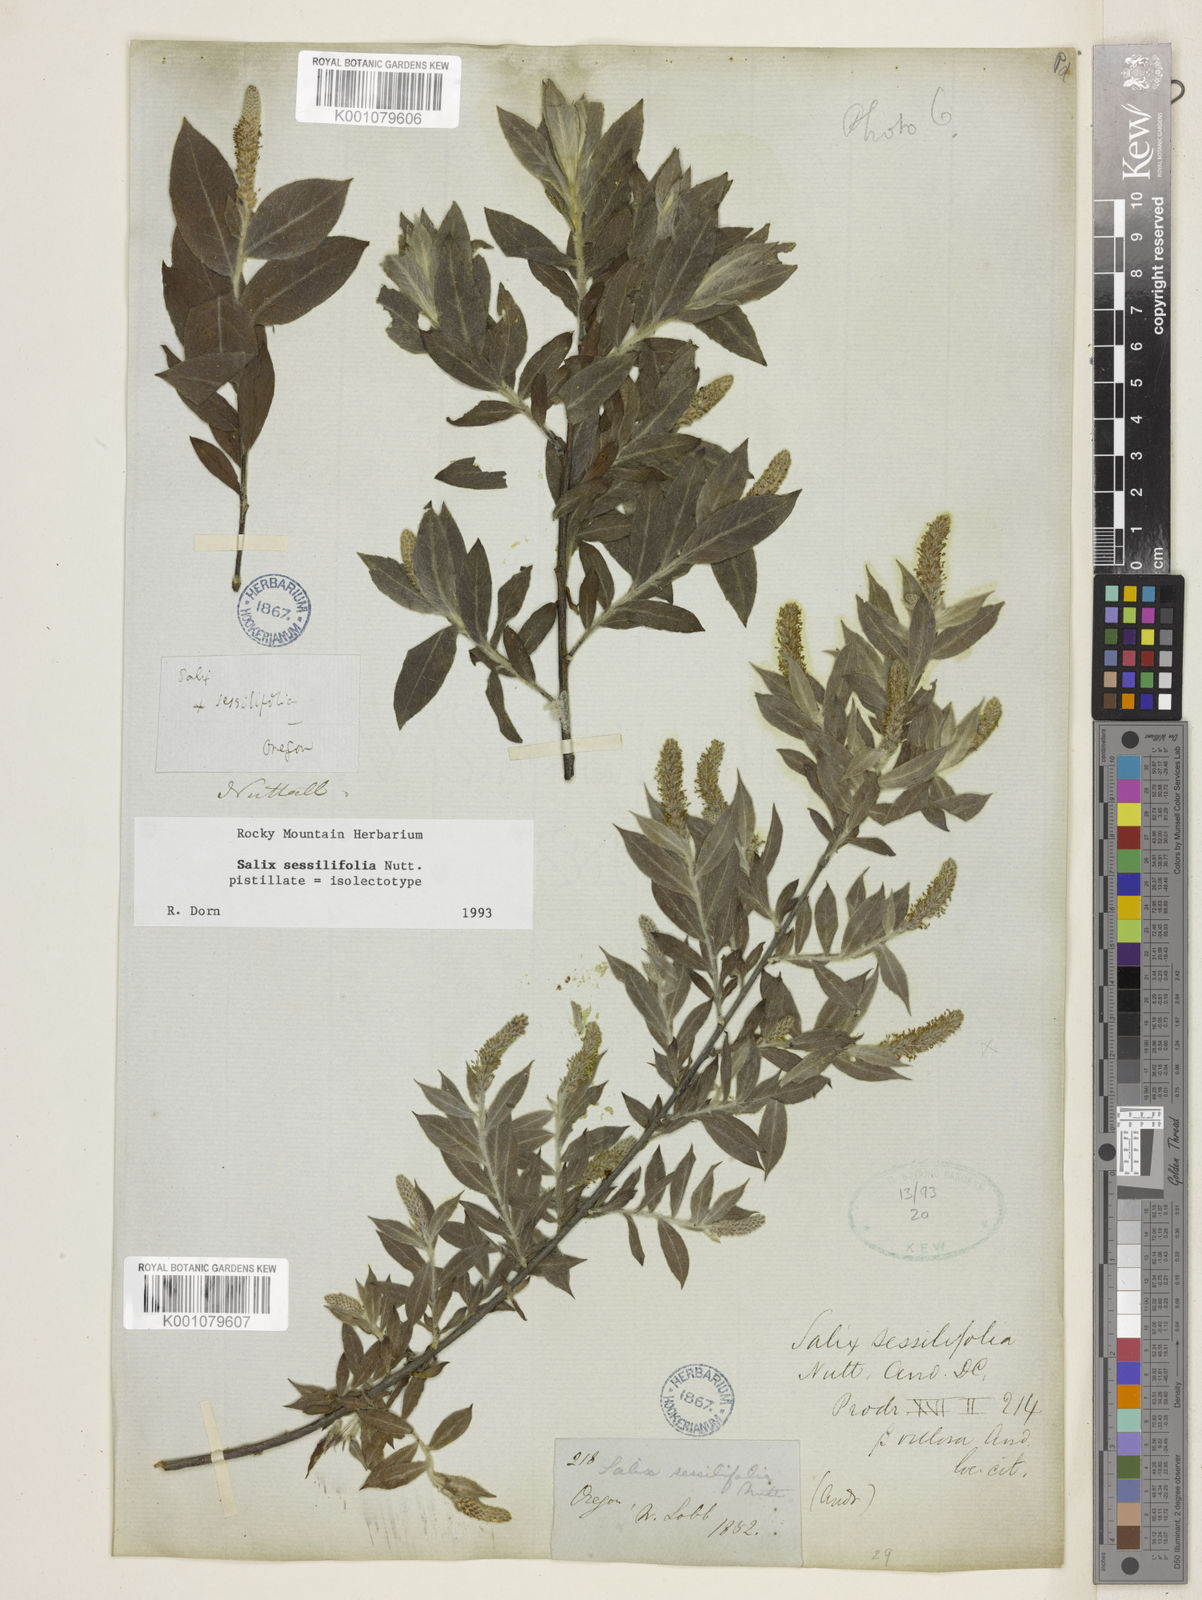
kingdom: Plantae
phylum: Tracheophyta
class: Magnoliopsida
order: Malpighiales
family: Salicaceae
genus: Salix
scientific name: Salix sessilifolia
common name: Longleaf willow
